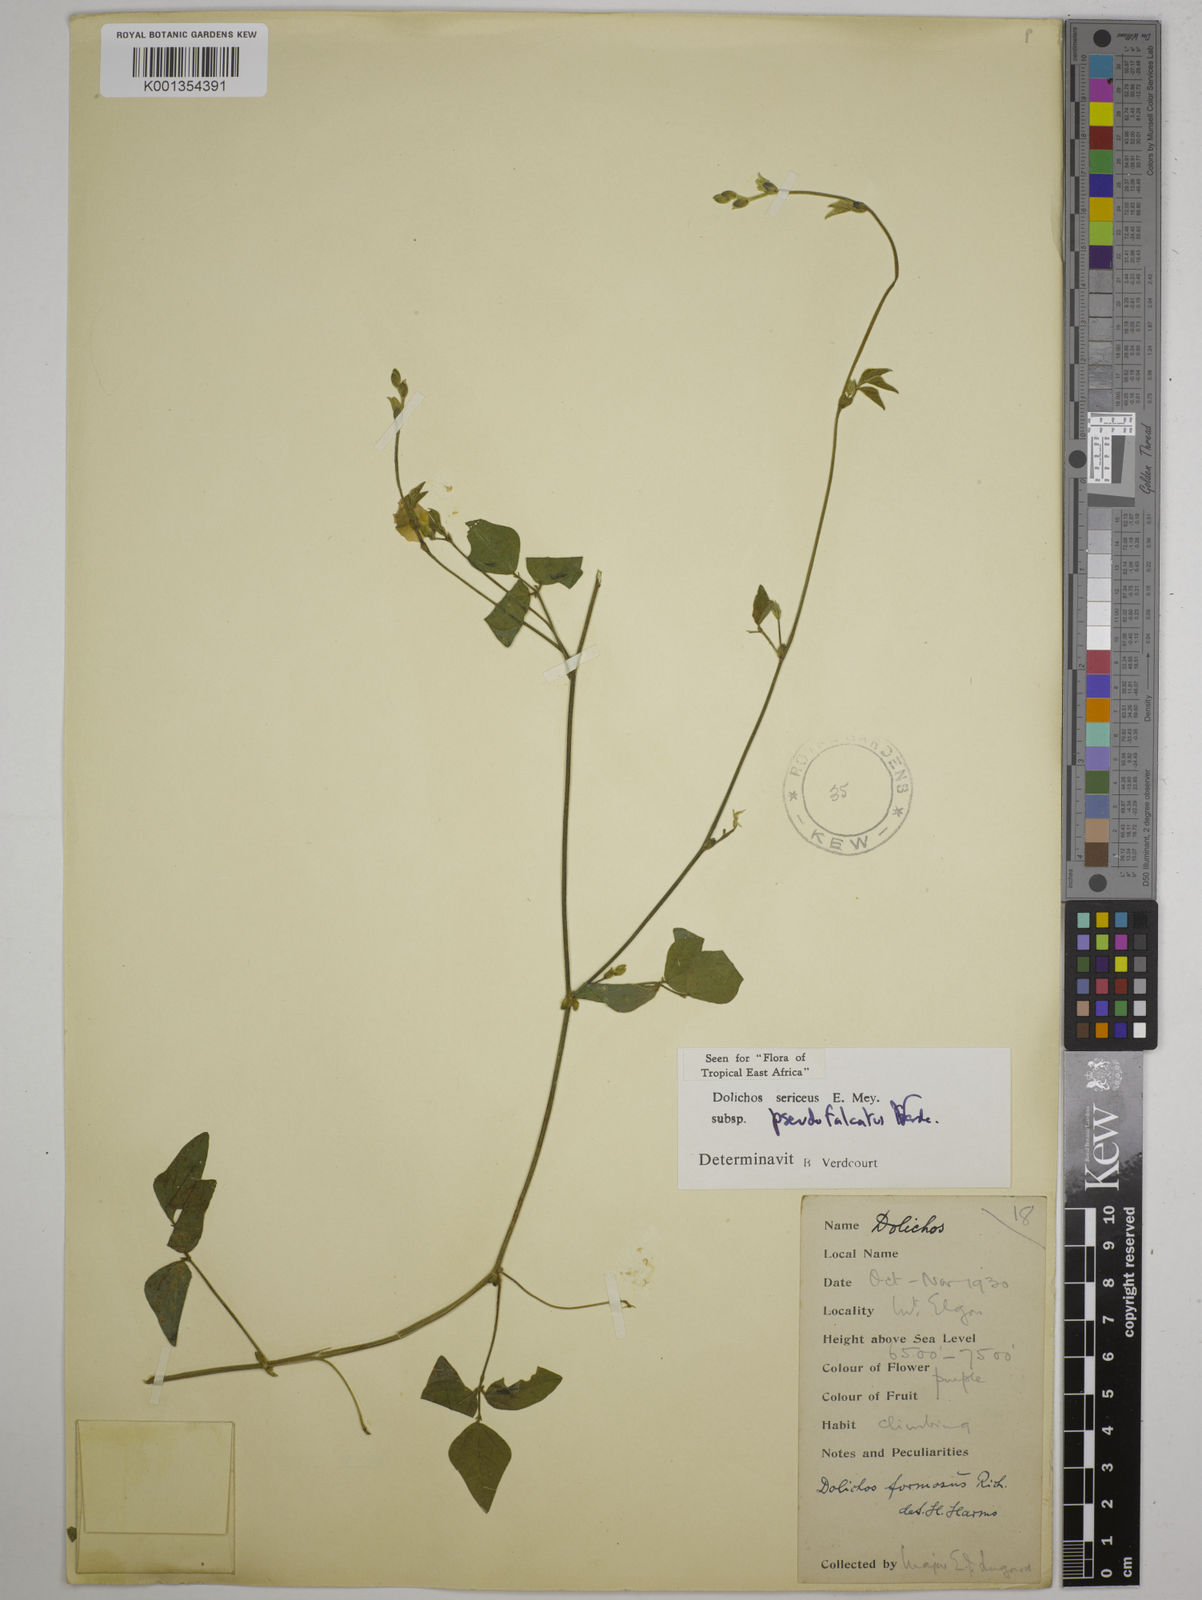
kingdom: Plantae
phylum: Tracheophyta
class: Magnoliopsida
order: Fabales
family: Fabaceae
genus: Dolichos
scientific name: Dolichos
